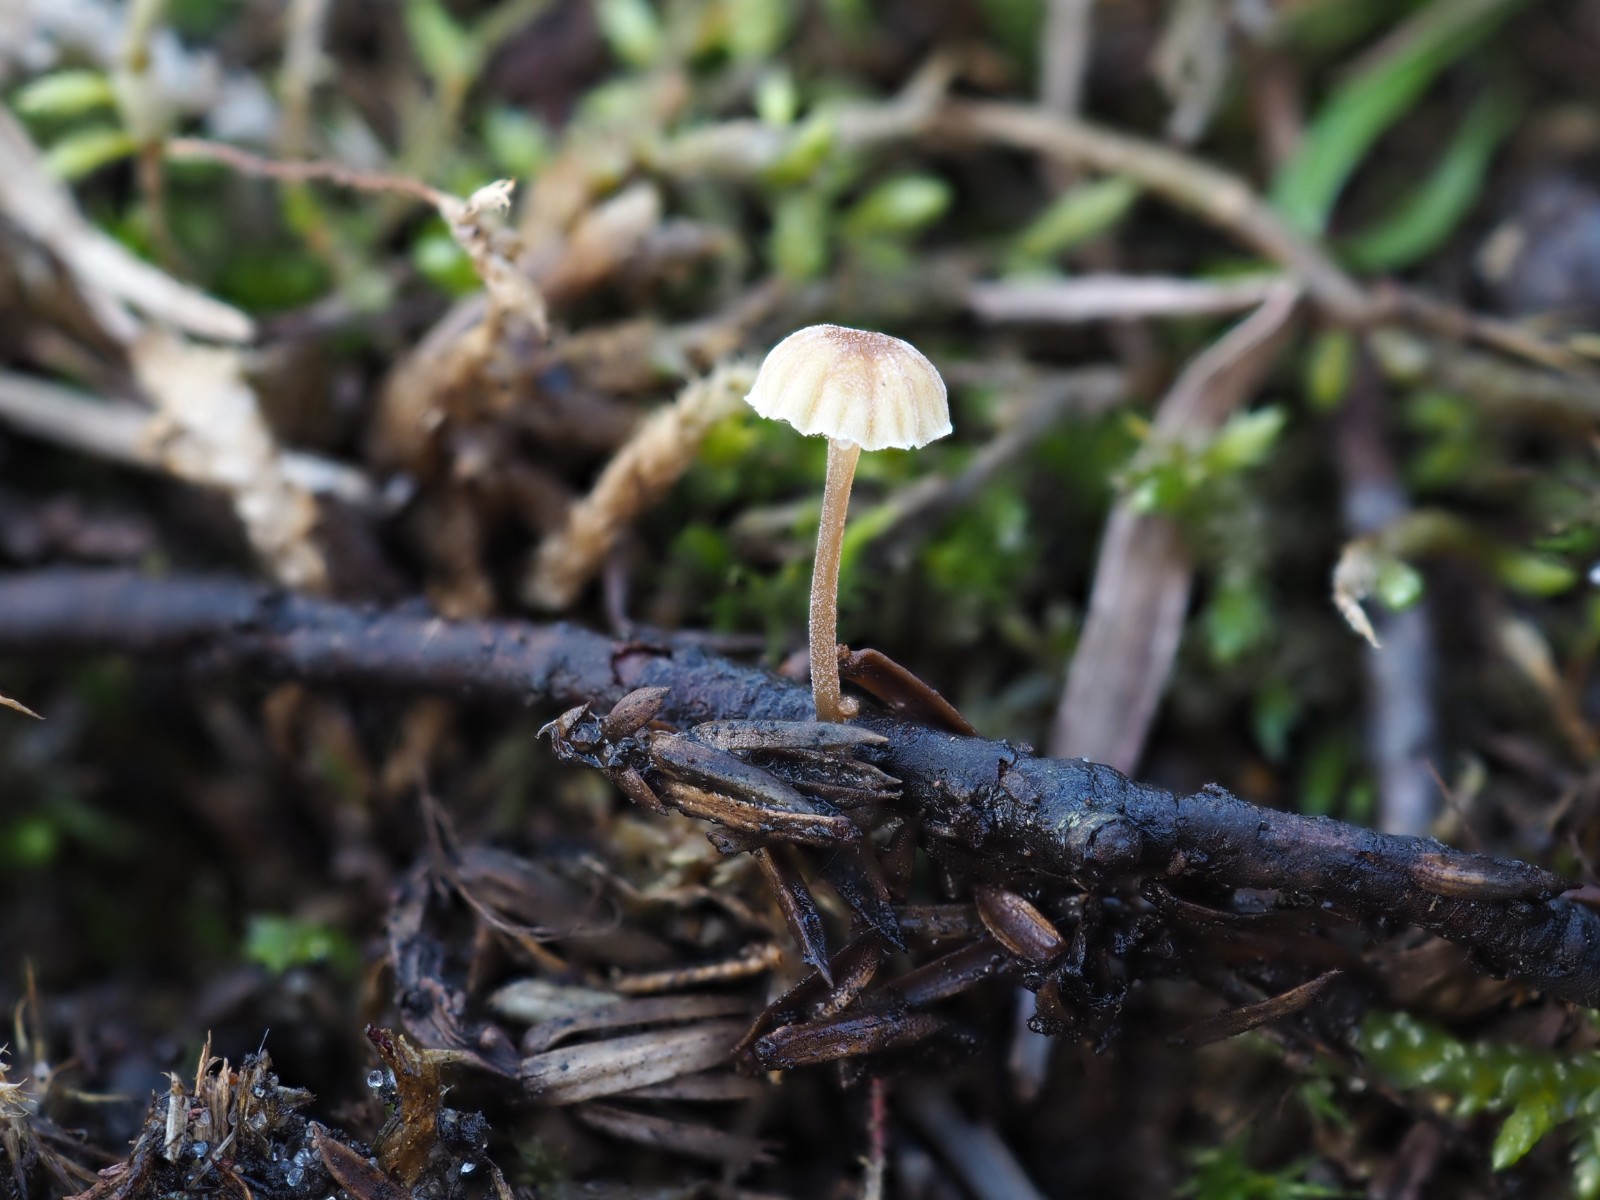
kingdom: Fungi
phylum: Basidiomycota
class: Agaricomycetes
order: Agaricales
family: Mycenaceae
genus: Mycena
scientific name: Mycena juniperina
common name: ene-Huesvamp
